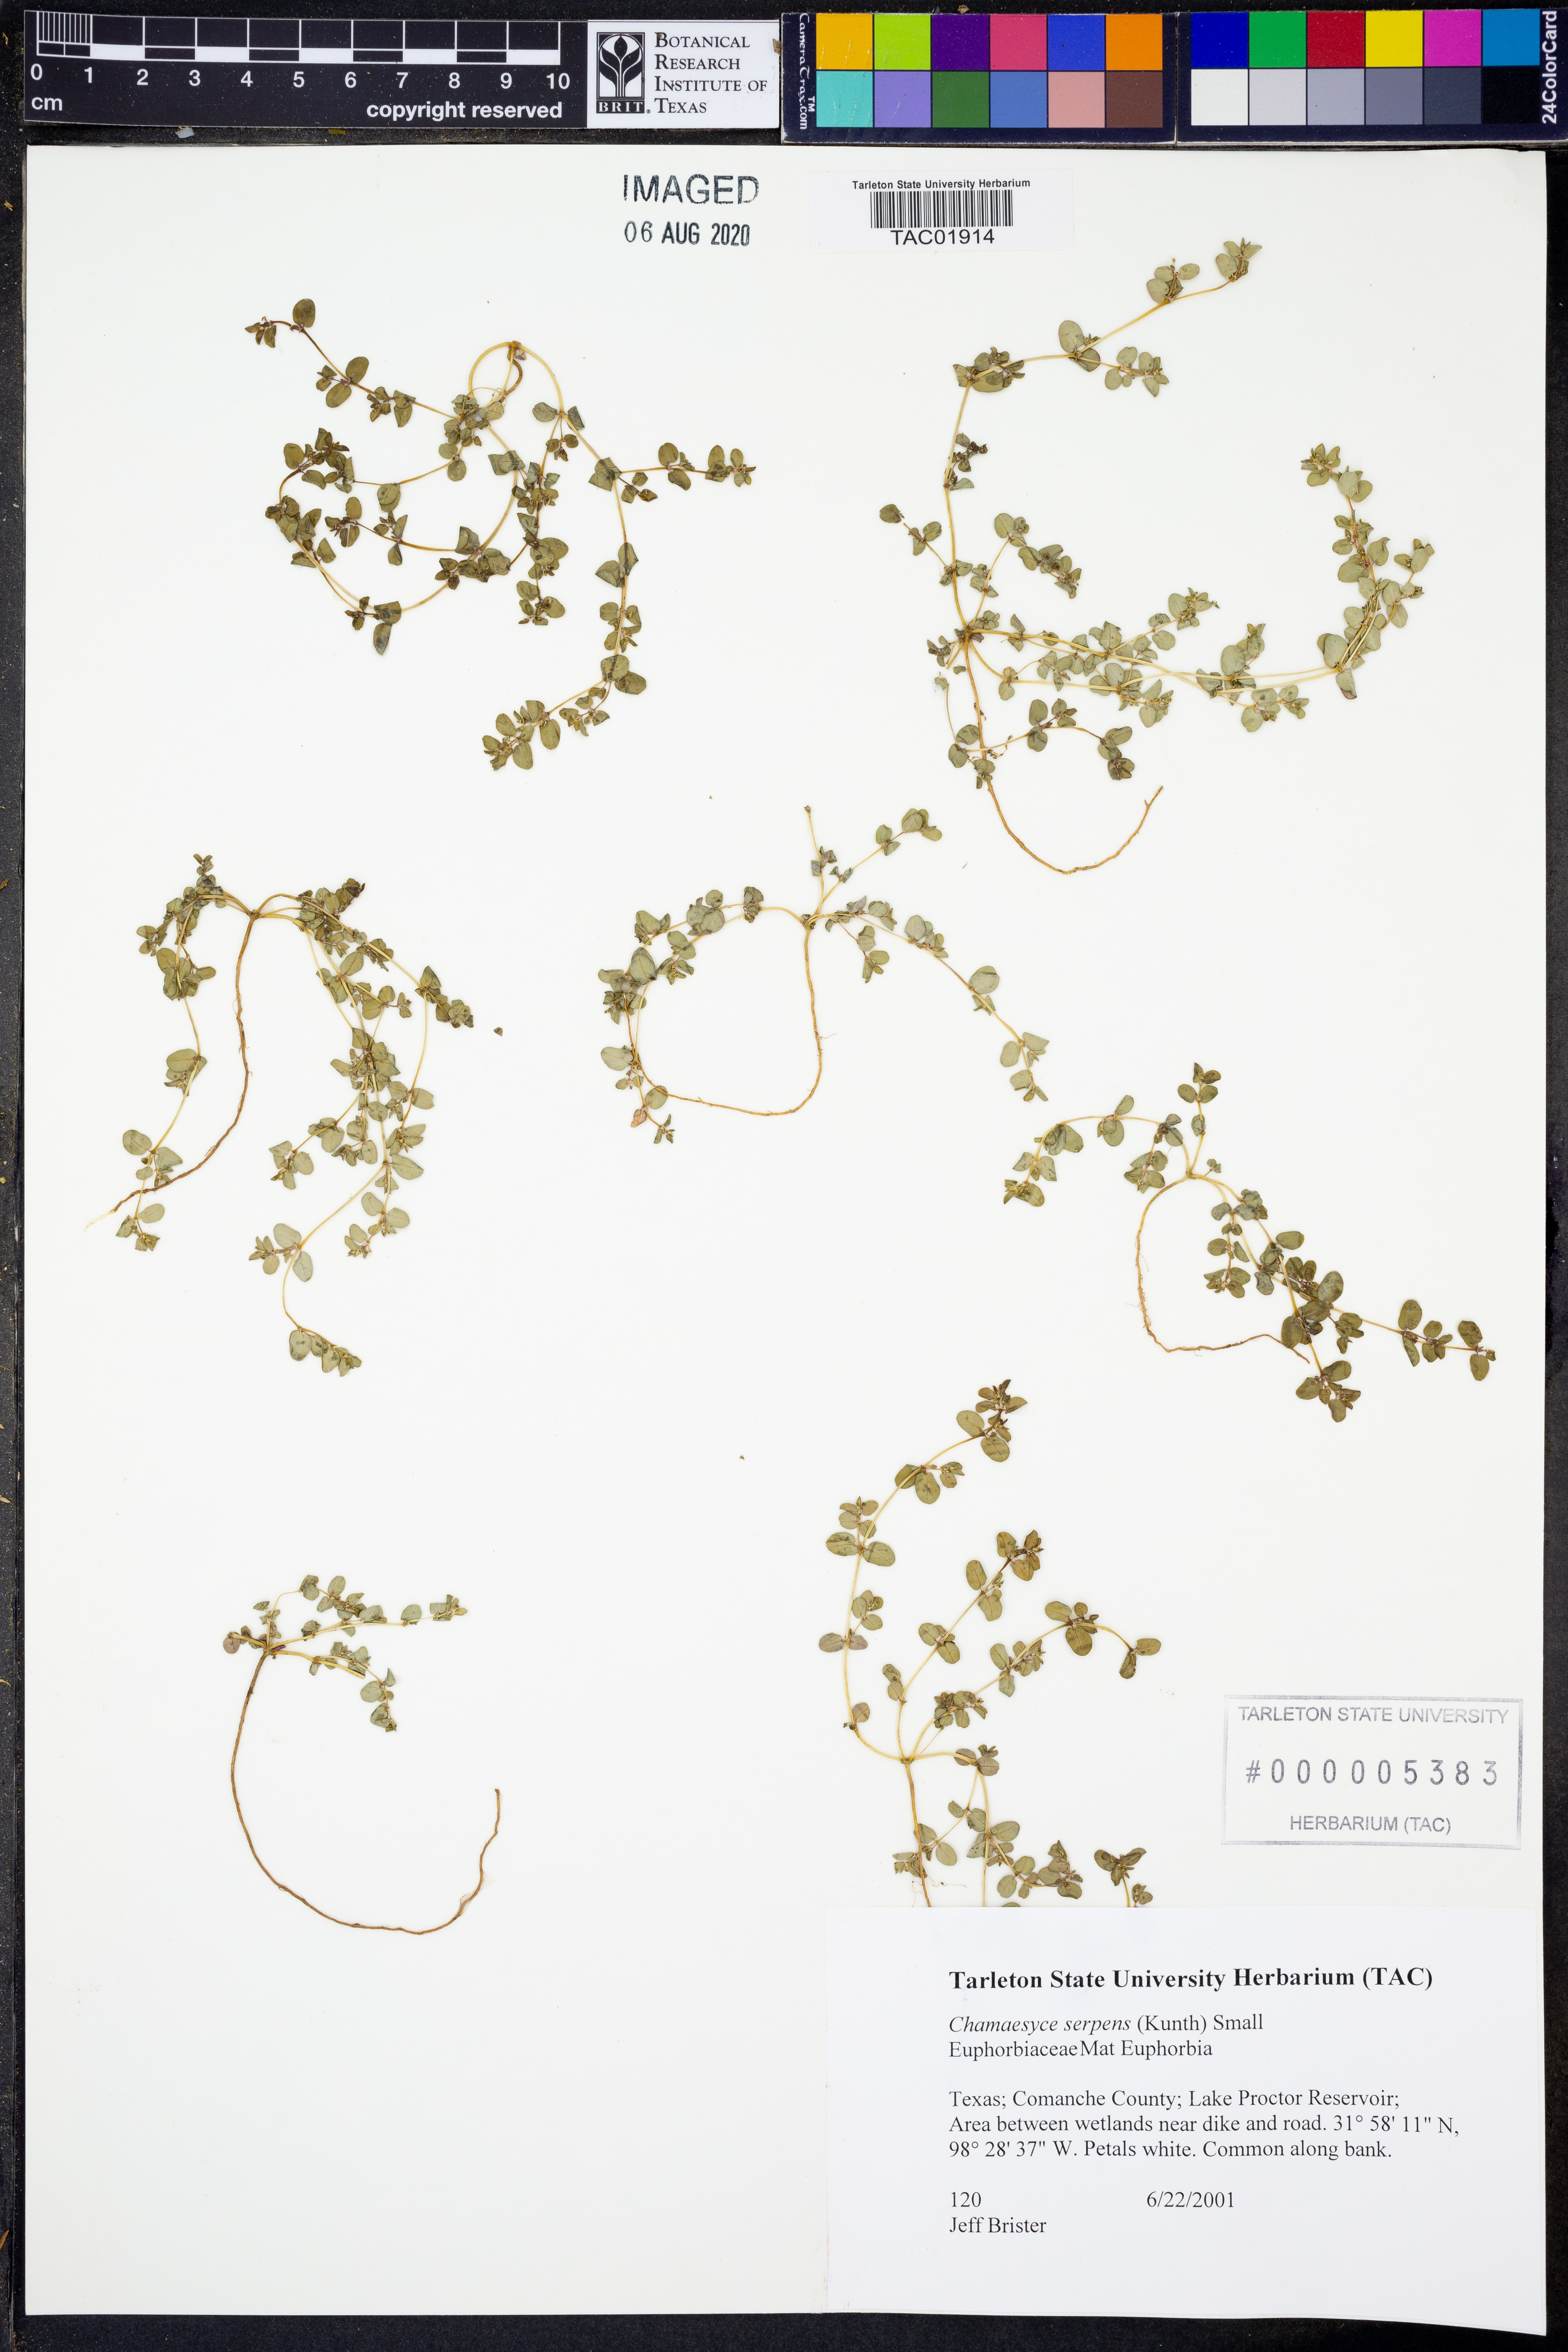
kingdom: Plantae
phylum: Tracheophyta
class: Magnoliopsida
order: Malpighiales
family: Euphorbiaceae
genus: Euphorbia
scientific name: Euphorbia serpens
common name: Matted sandmat
